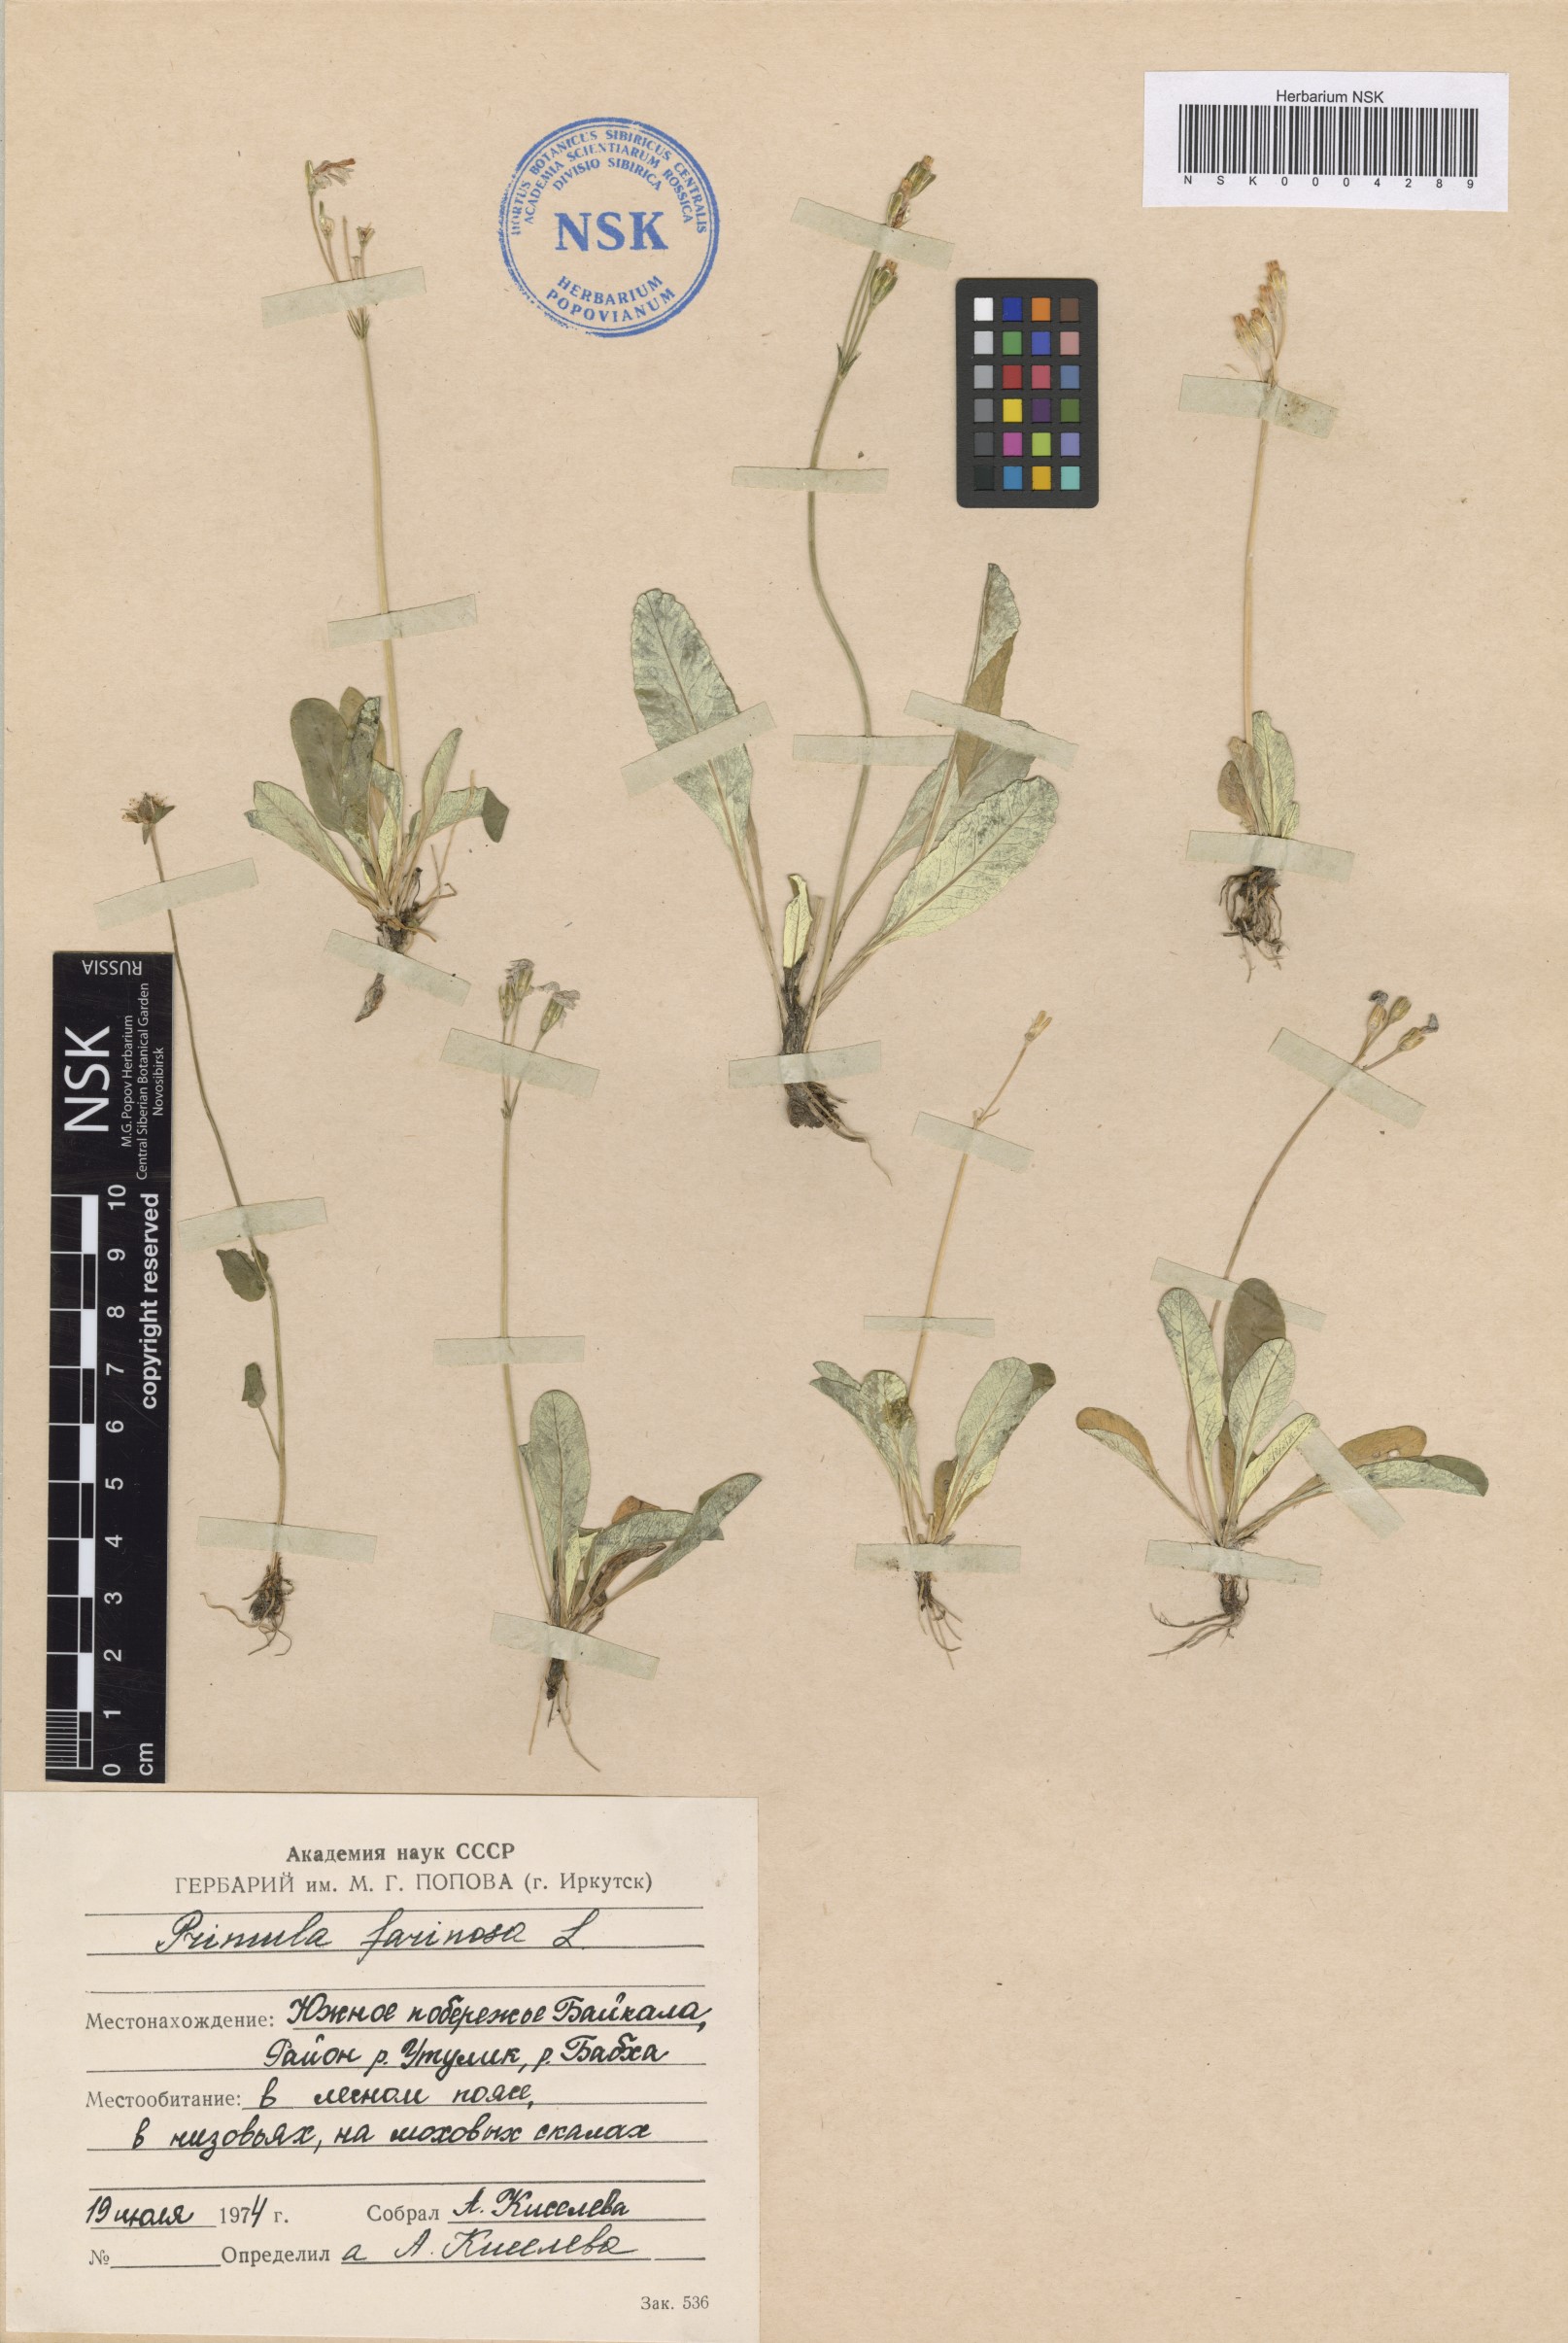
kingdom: Plantae
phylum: Tracheophyta
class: Magnoliopsida
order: Ericales
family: Primulaceae
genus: Primula
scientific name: Primula farinosa
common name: Bird's-eye primrose
